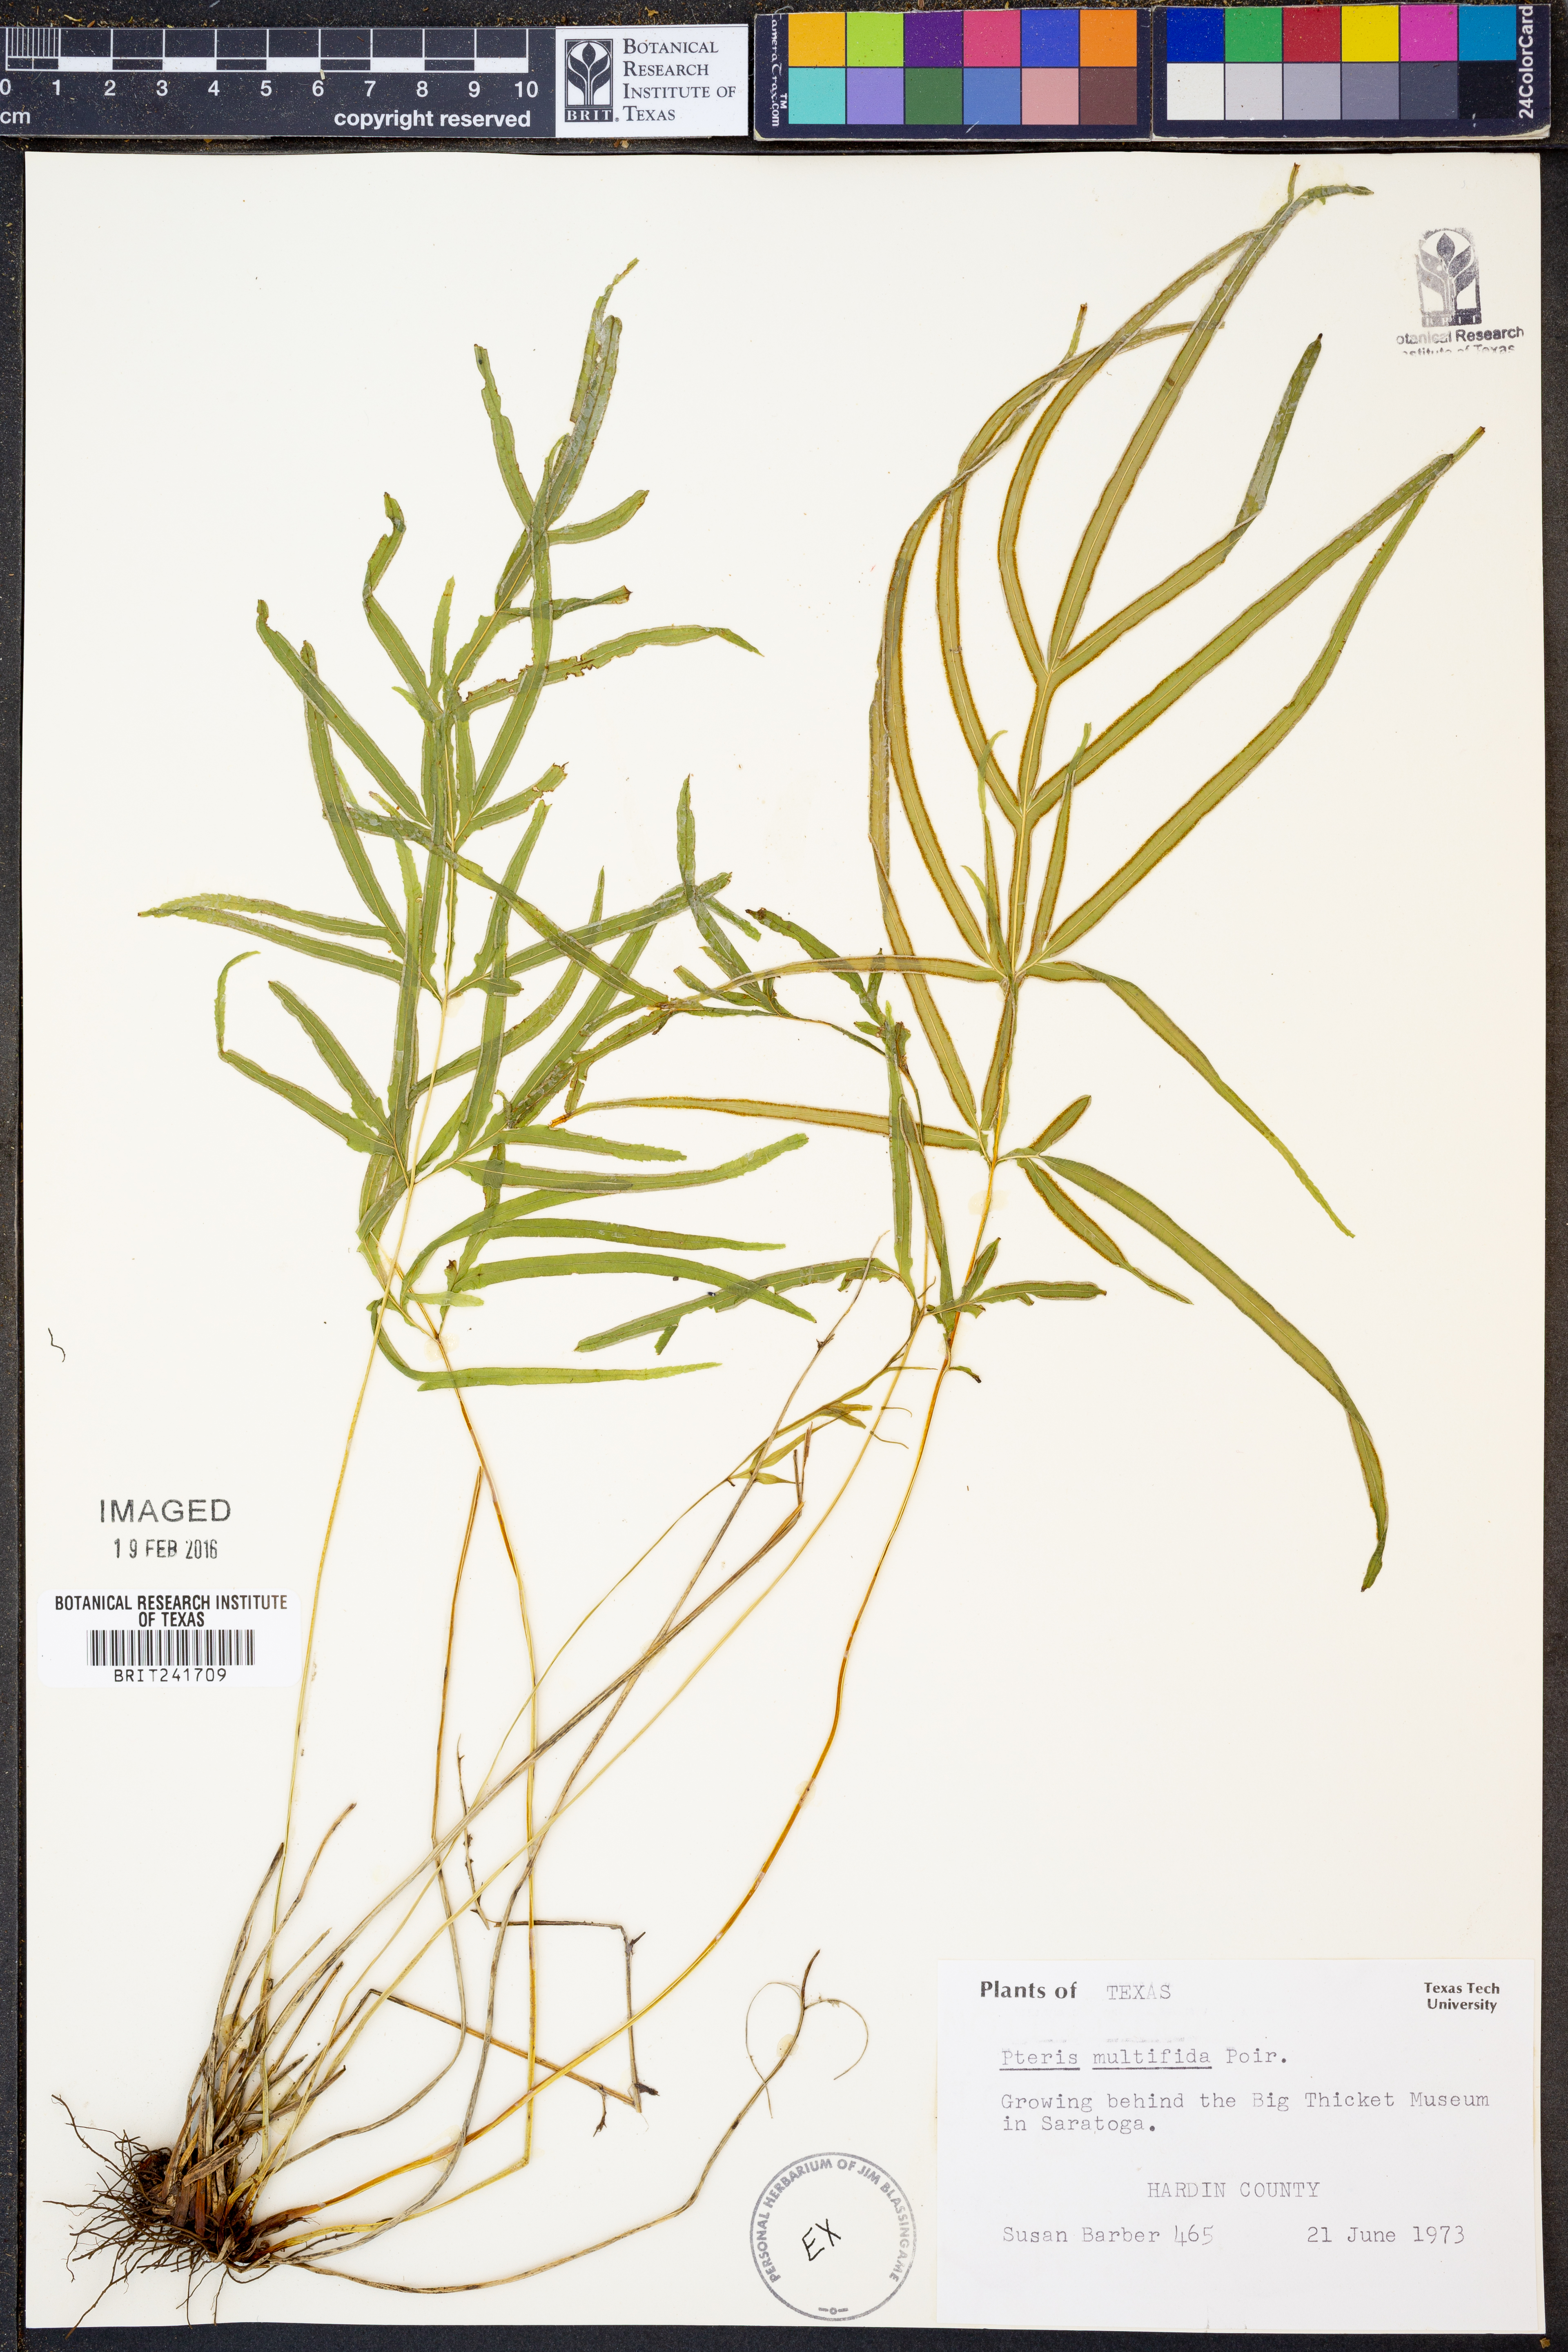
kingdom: Plantae
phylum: Tracheophyta
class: Polypodiopsida
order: Polypodiales
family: Pteridaceae
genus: Pteris
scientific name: Pteris multifida
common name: Spider brake
